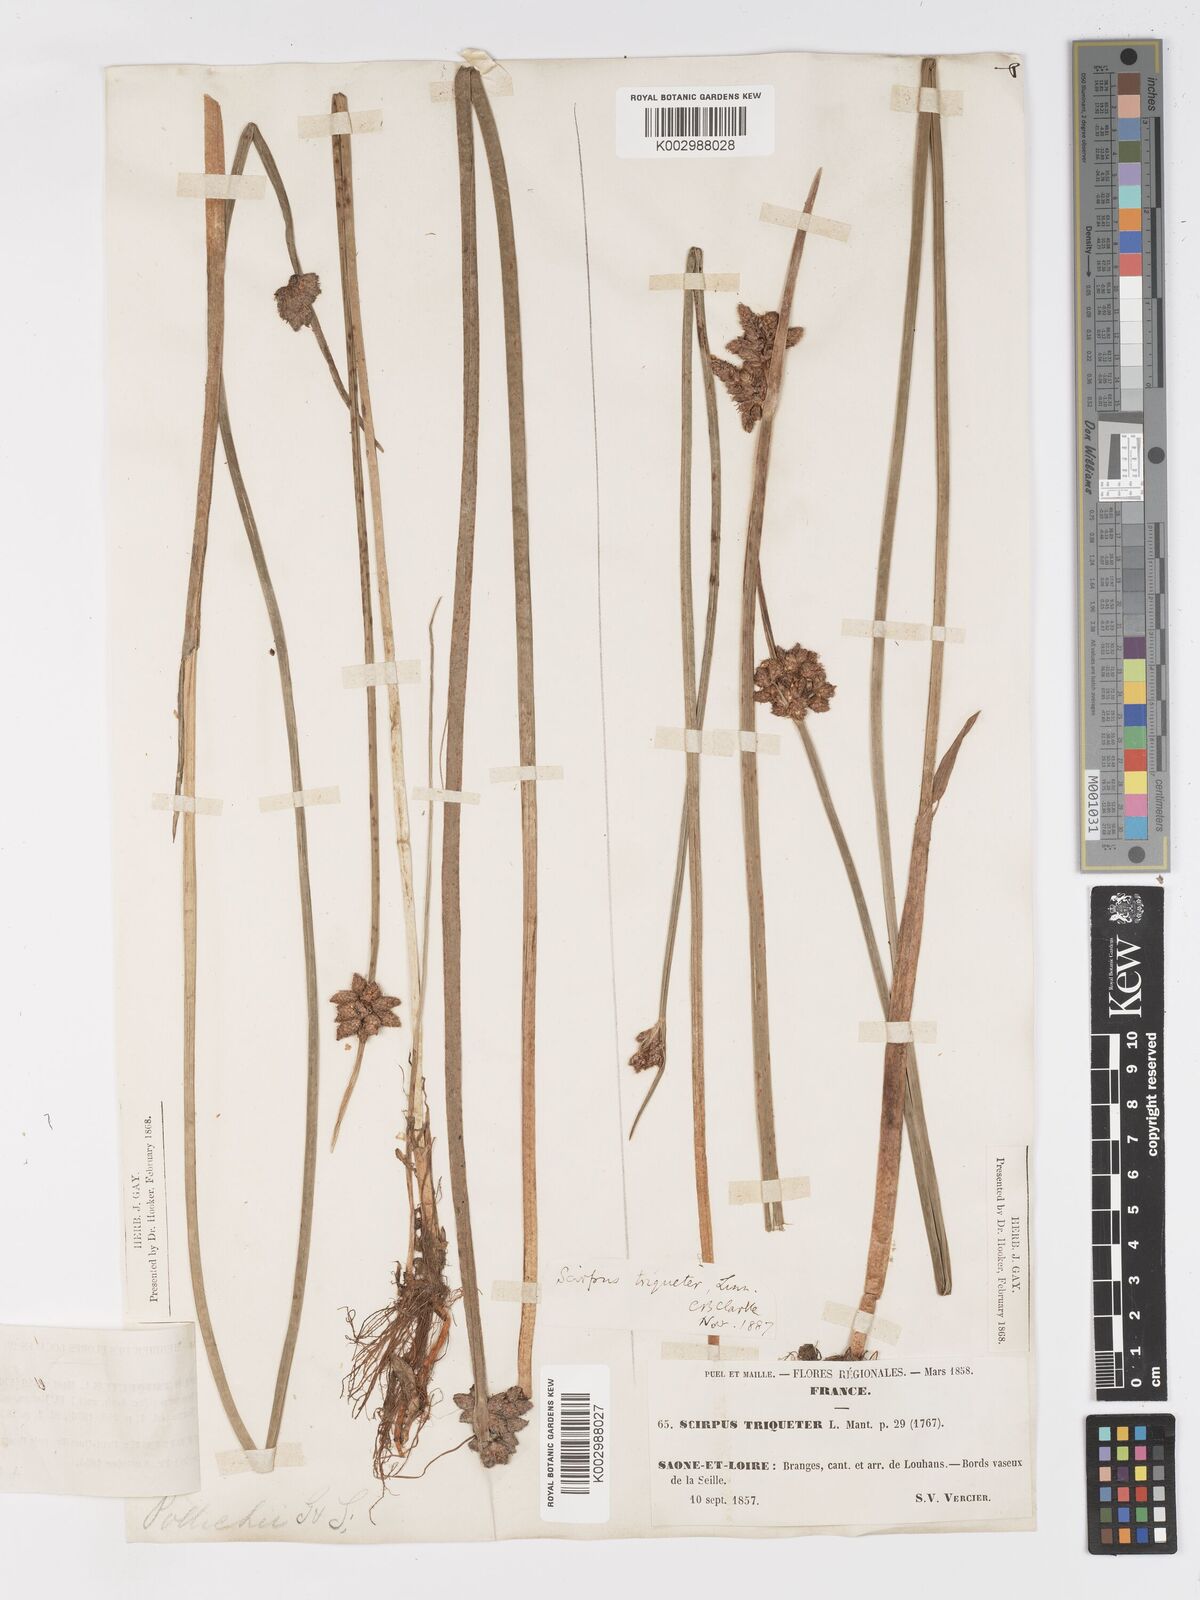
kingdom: Plantae
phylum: Tracheophyta
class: Liliopsida
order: Poales
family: Cyperaceae
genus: Schoenoplectus
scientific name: Schoenoplectus triqueter
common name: Triangular club-rush
